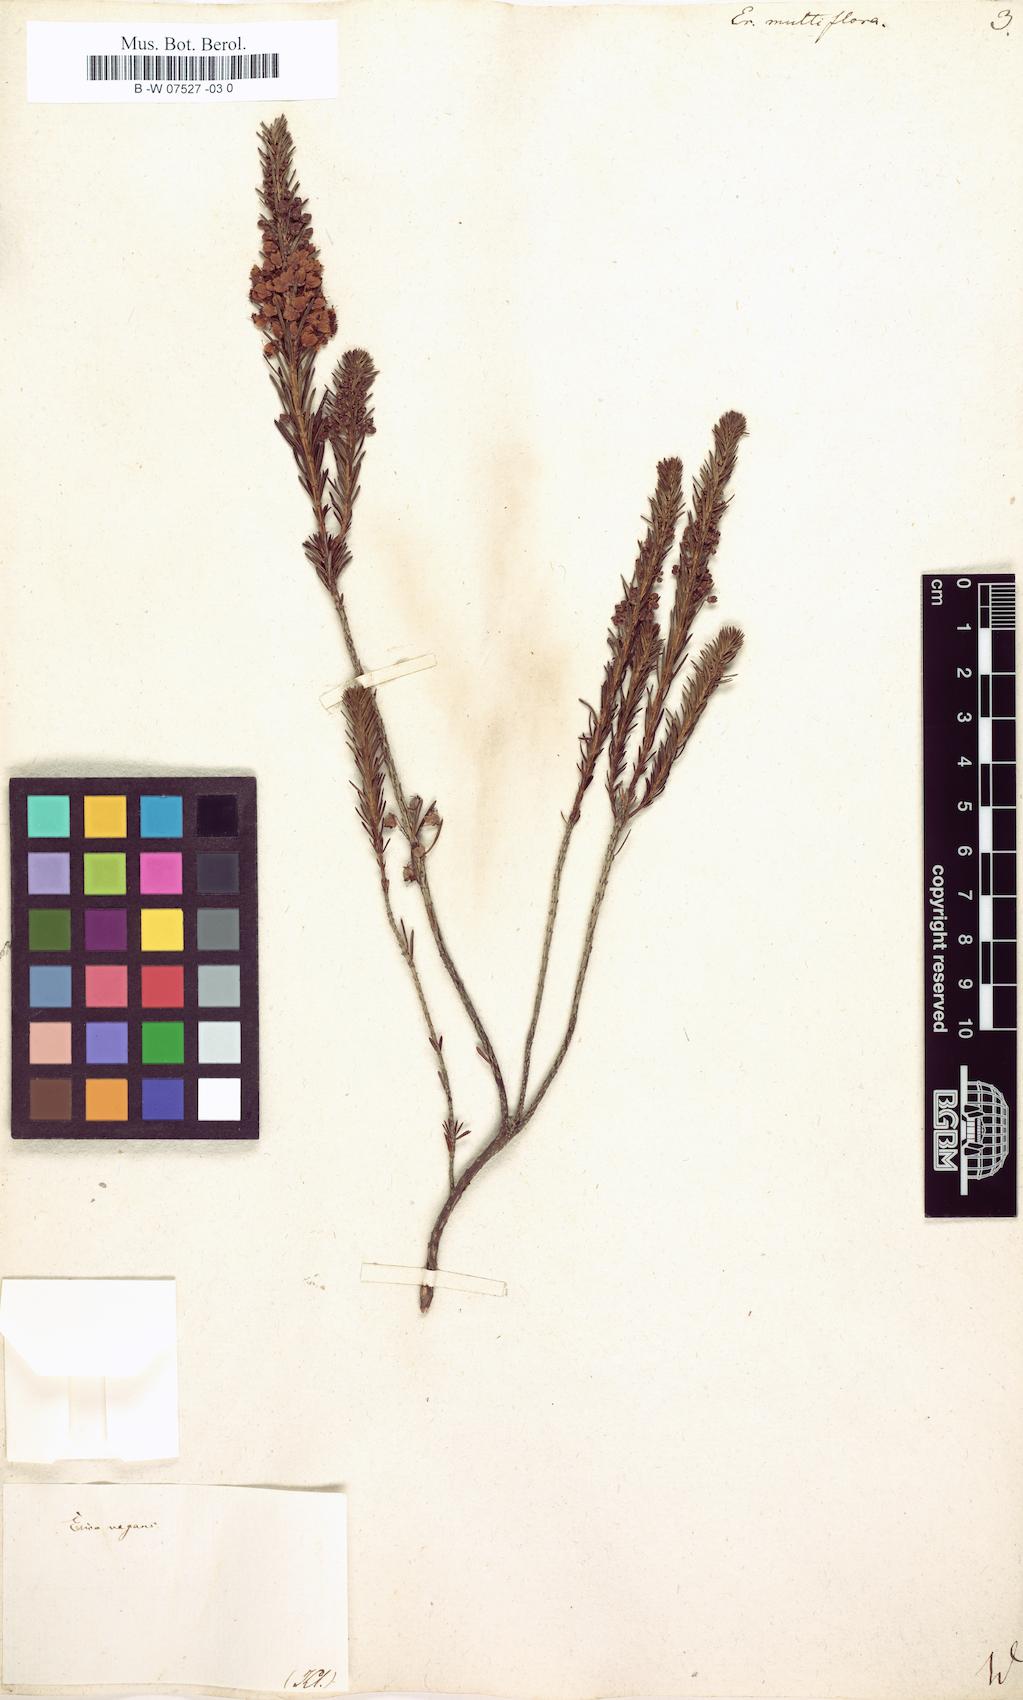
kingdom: Plantae
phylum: Tracheophyta
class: Magnoliopsida
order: Ericales
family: Ericaceae
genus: Erica
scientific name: Erica multiflora
